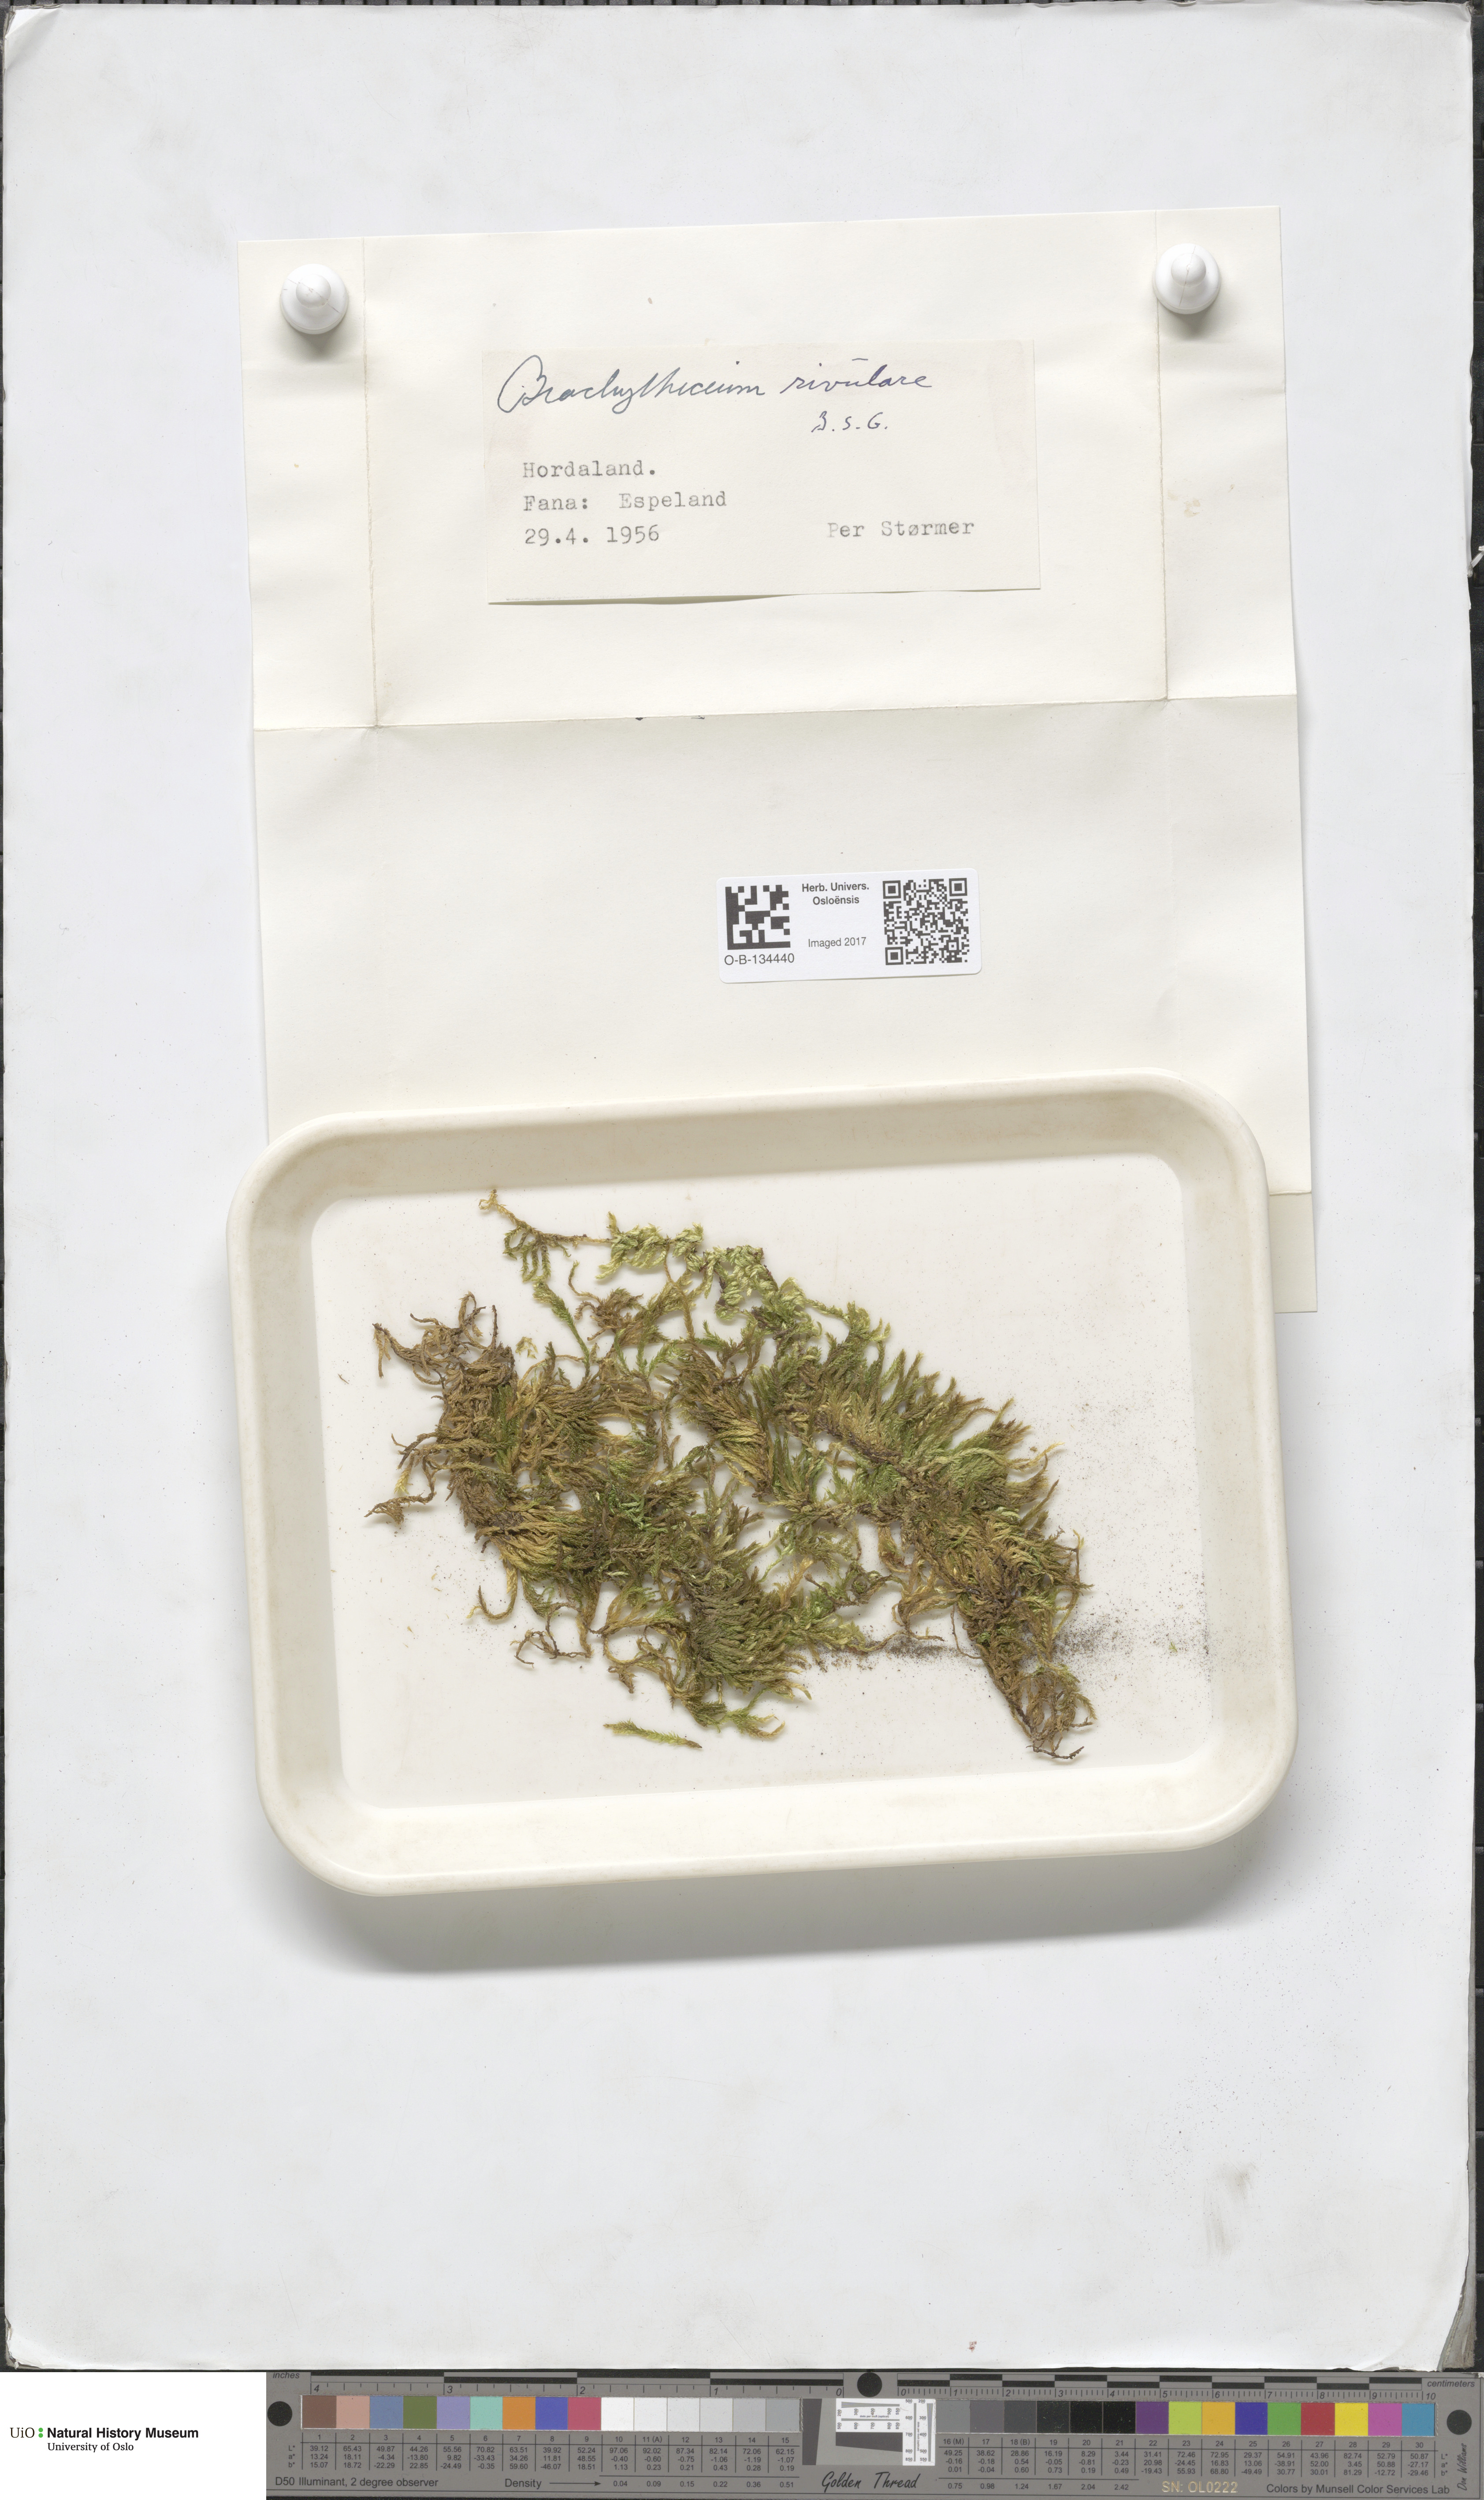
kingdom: Plantae
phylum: Bryophyta
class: Bryopsida
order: Hypnales
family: Brachytheciaceae
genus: Brachythecium
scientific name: Brachythecium rivulare
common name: River ragged moss
